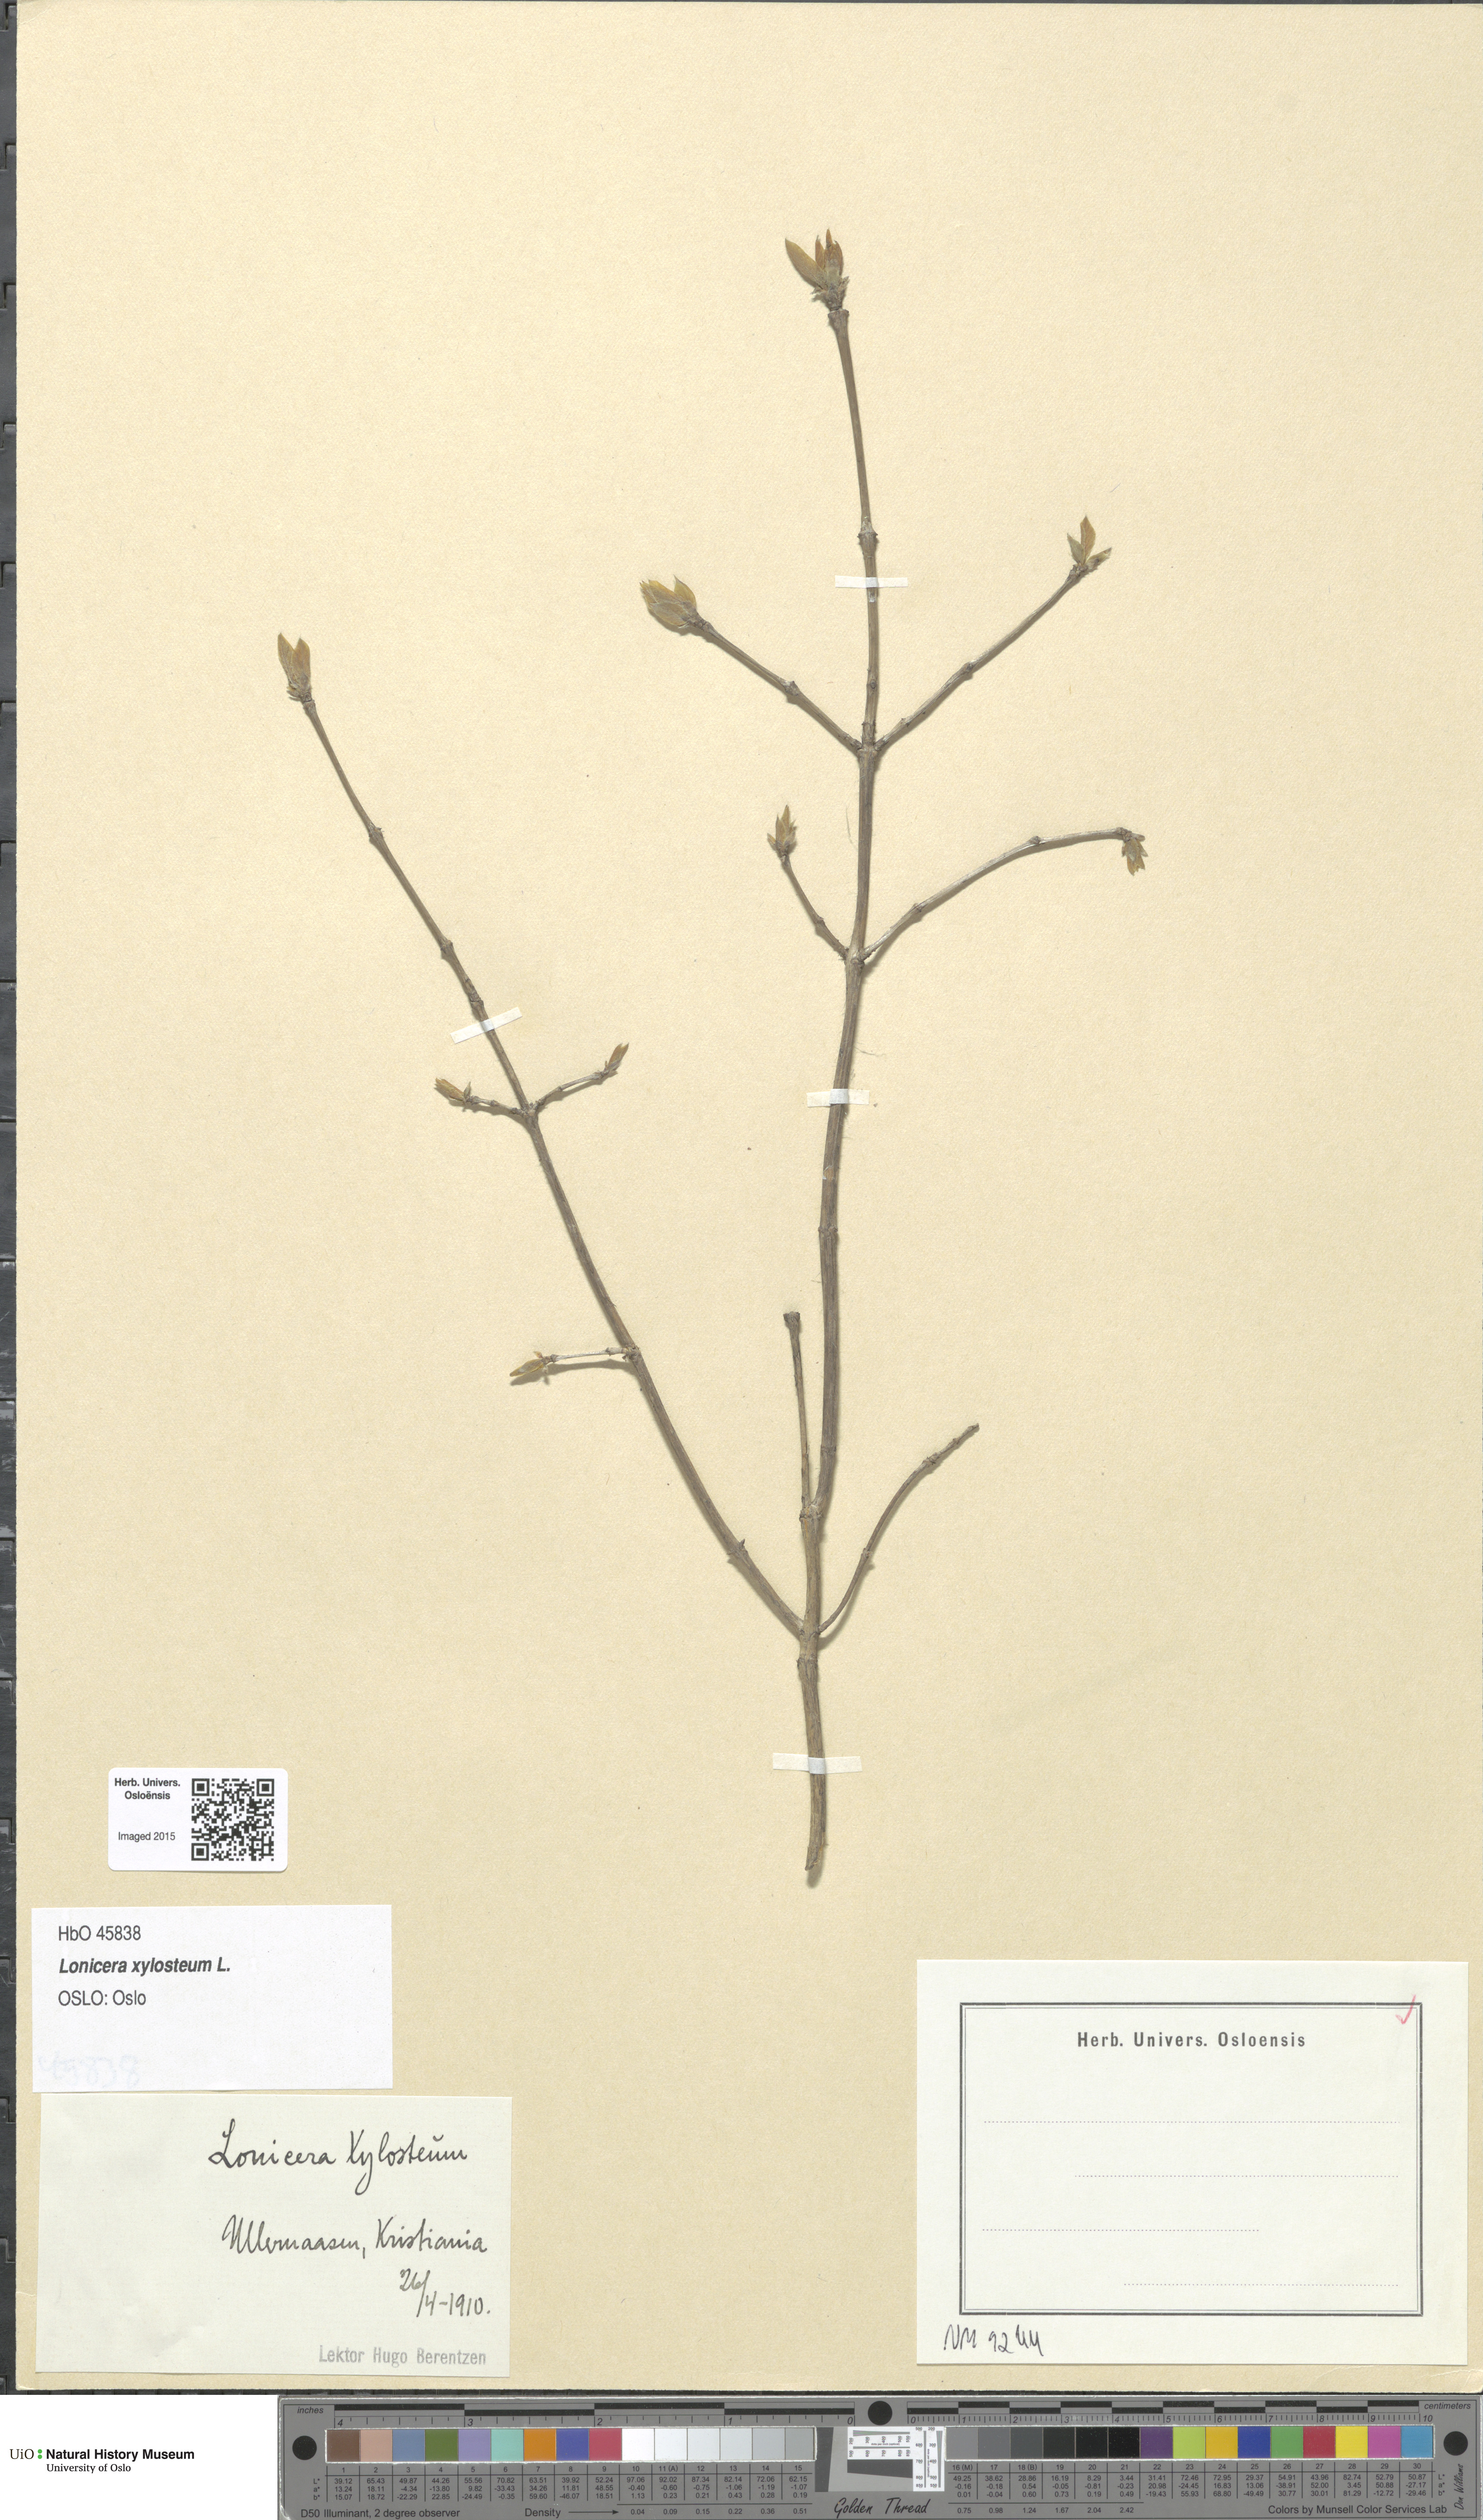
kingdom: Plantae
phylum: Tracheophyta
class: Magnoliopsida
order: Dipsacales
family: Caprifoliaceae
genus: Lonicera
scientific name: Lonicera xylosteum
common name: Fly honeysuckle
